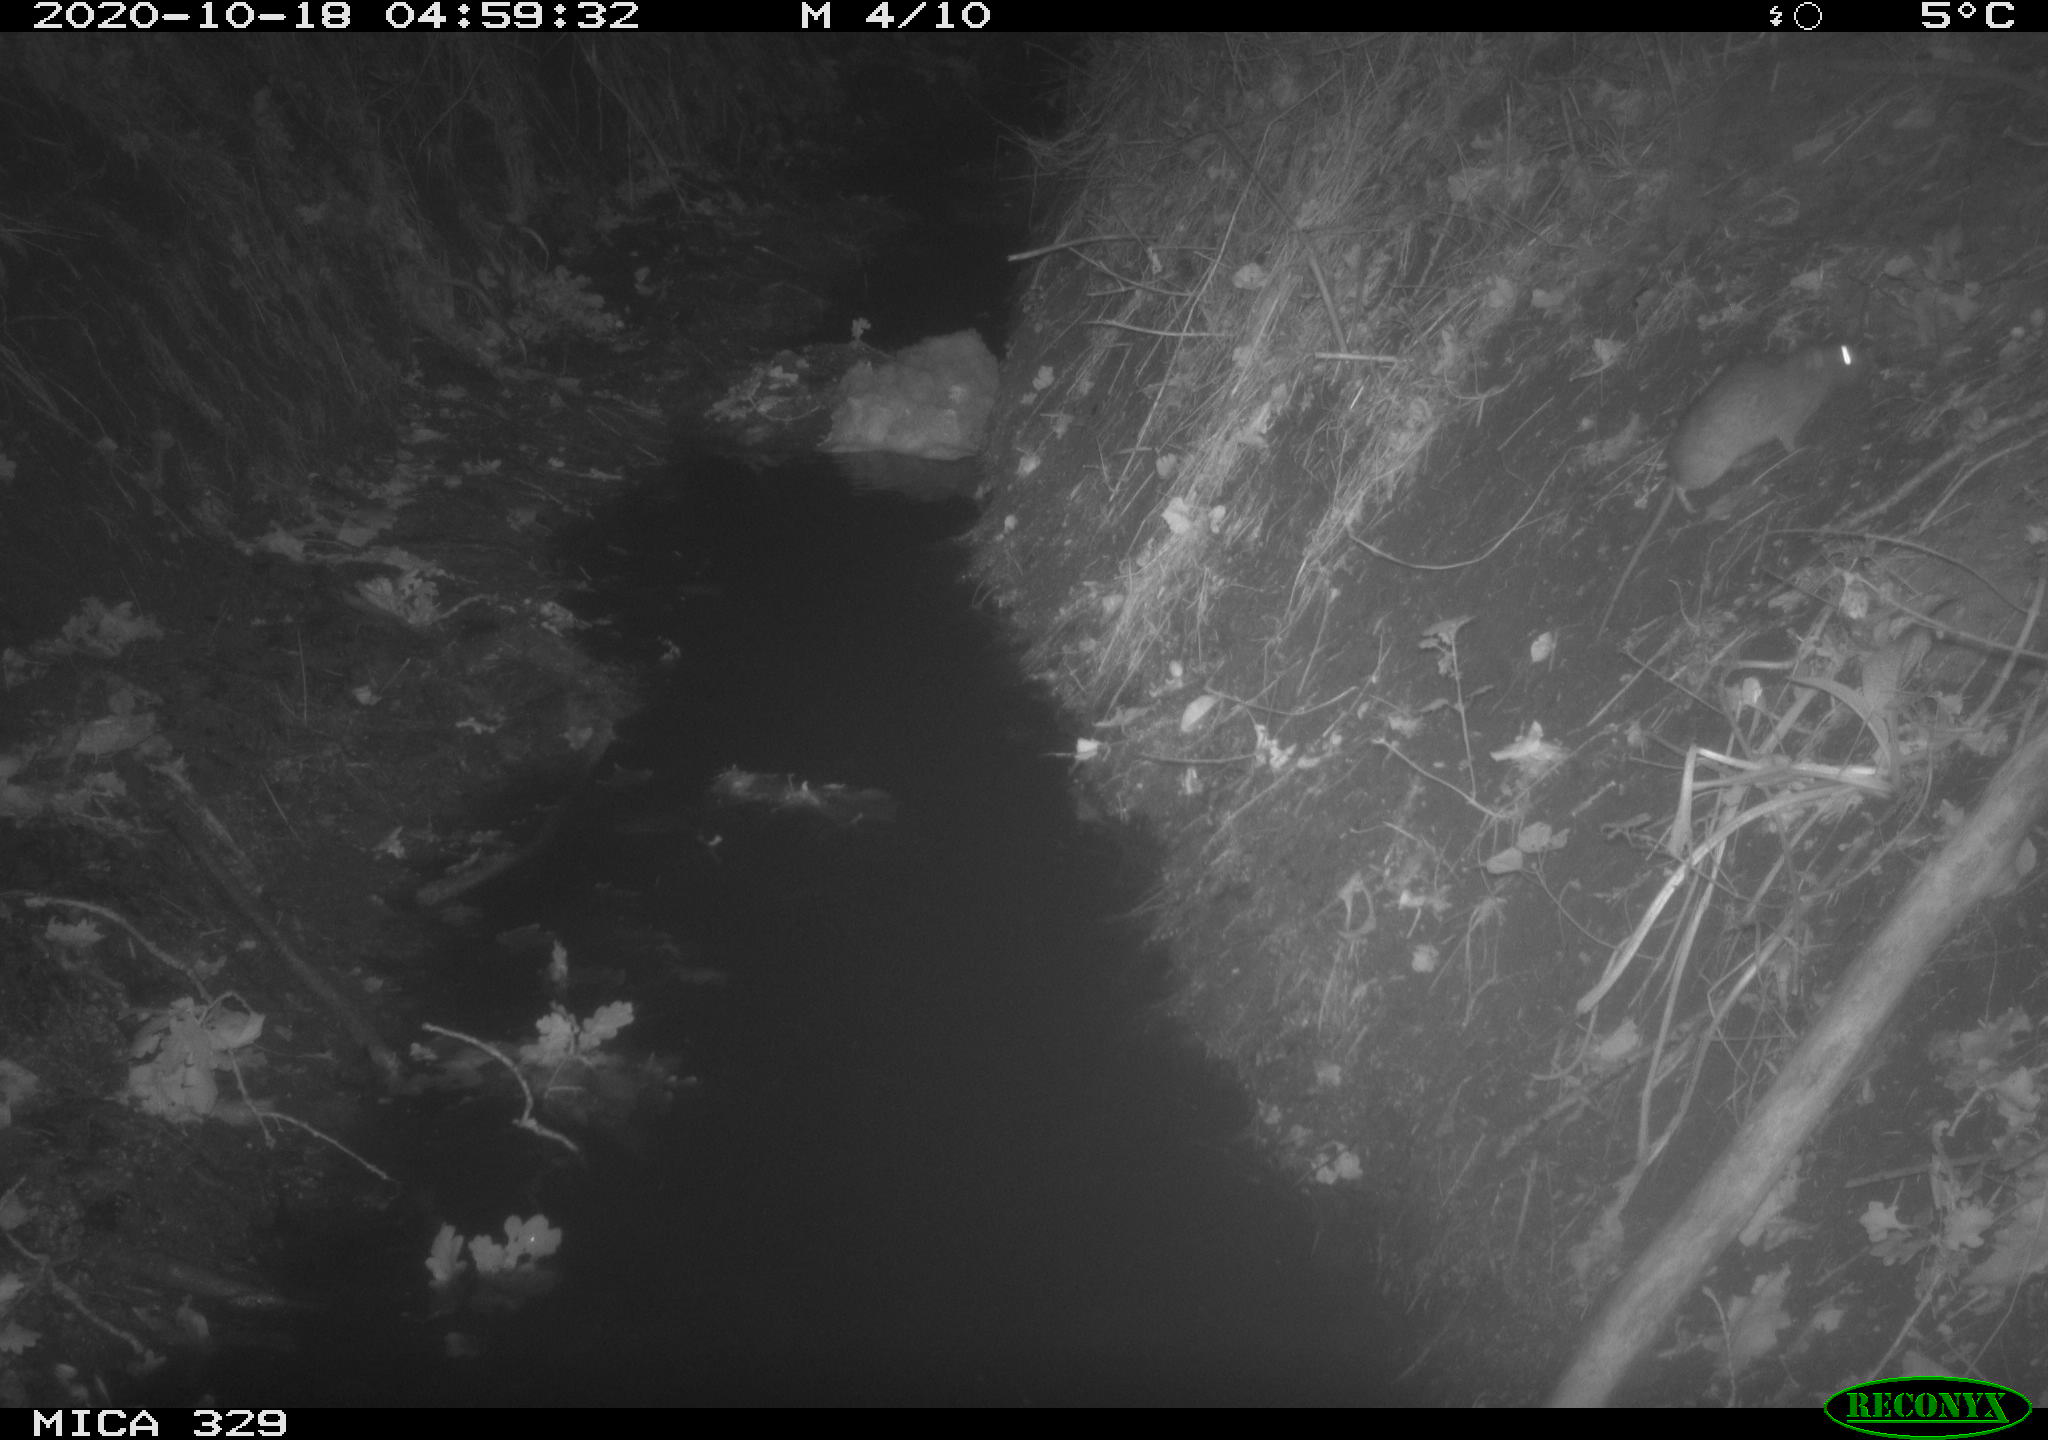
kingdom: Animalia
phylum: Chordata
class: Mammalia
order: Rodentia
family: Muridae
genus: Rattus
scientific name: Rattus norvegicus
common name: Brown rat
